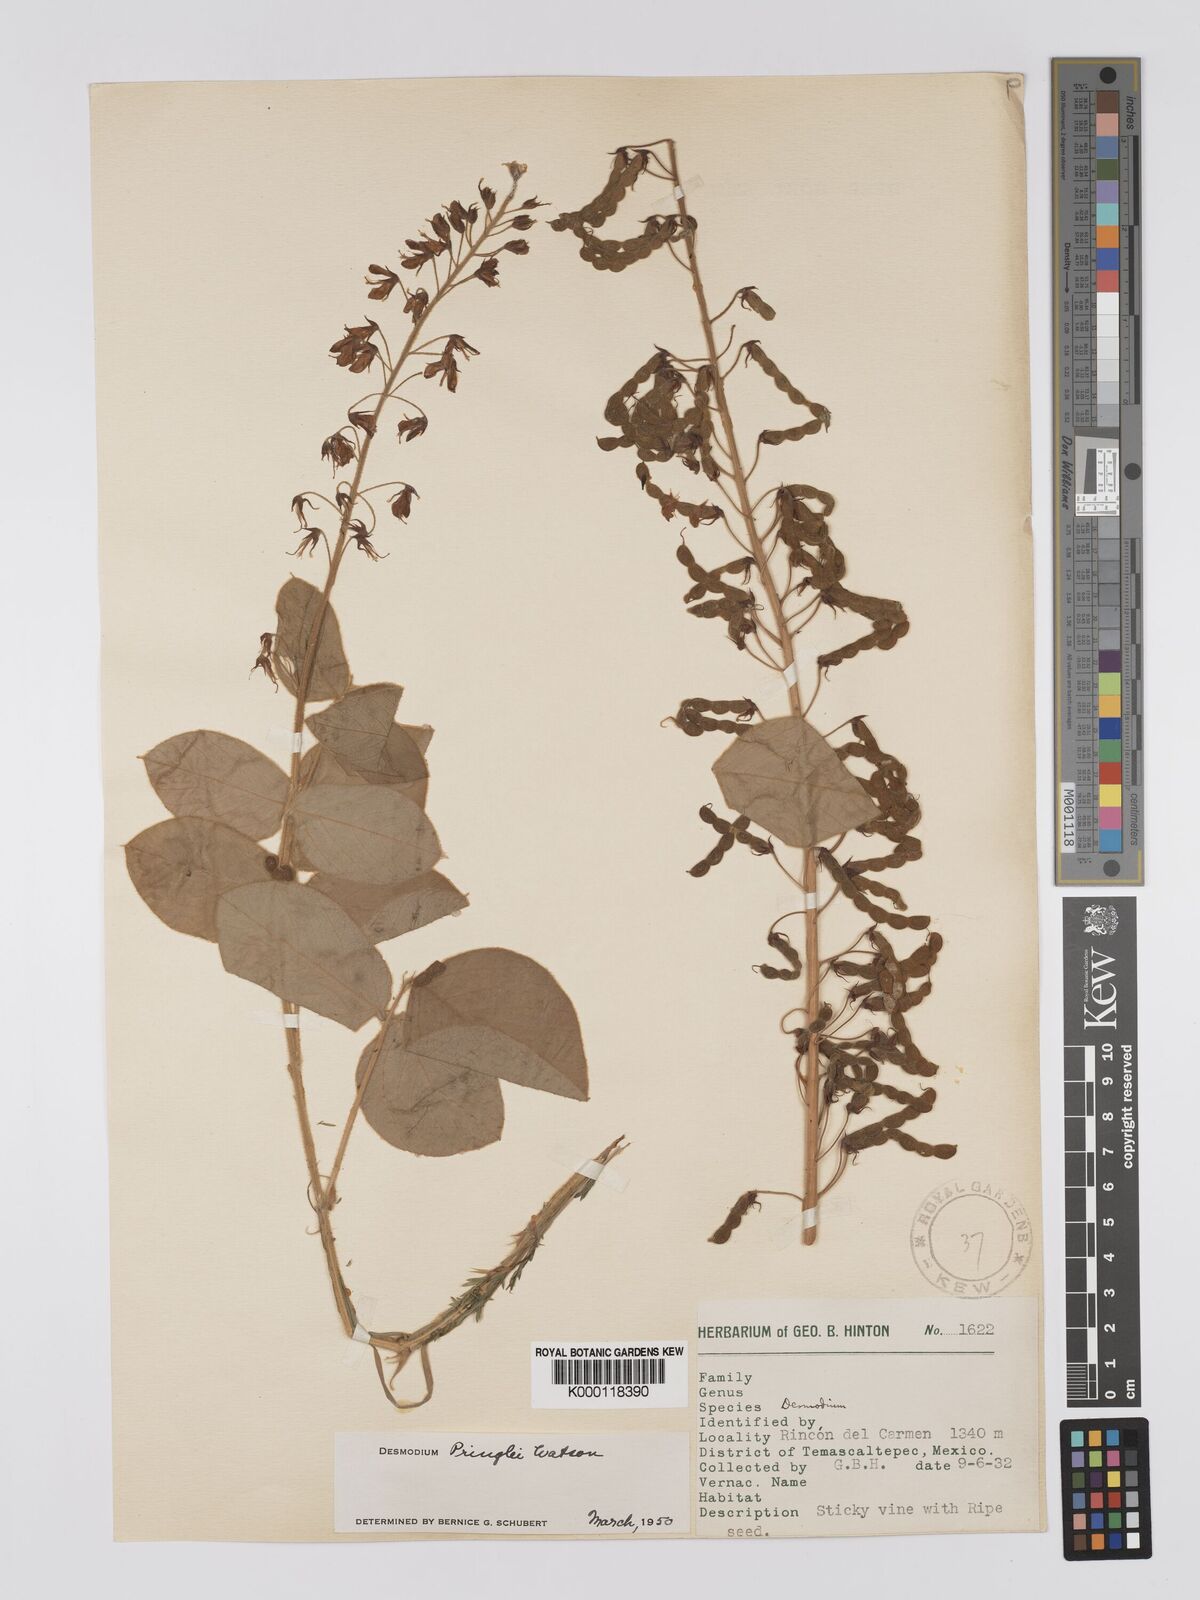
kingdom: Plantae
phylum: Tracheophyta
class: Magnoliopsida
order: Fabales
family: Fabaceae
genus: Desmodium
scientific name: Desmodium pringlei
